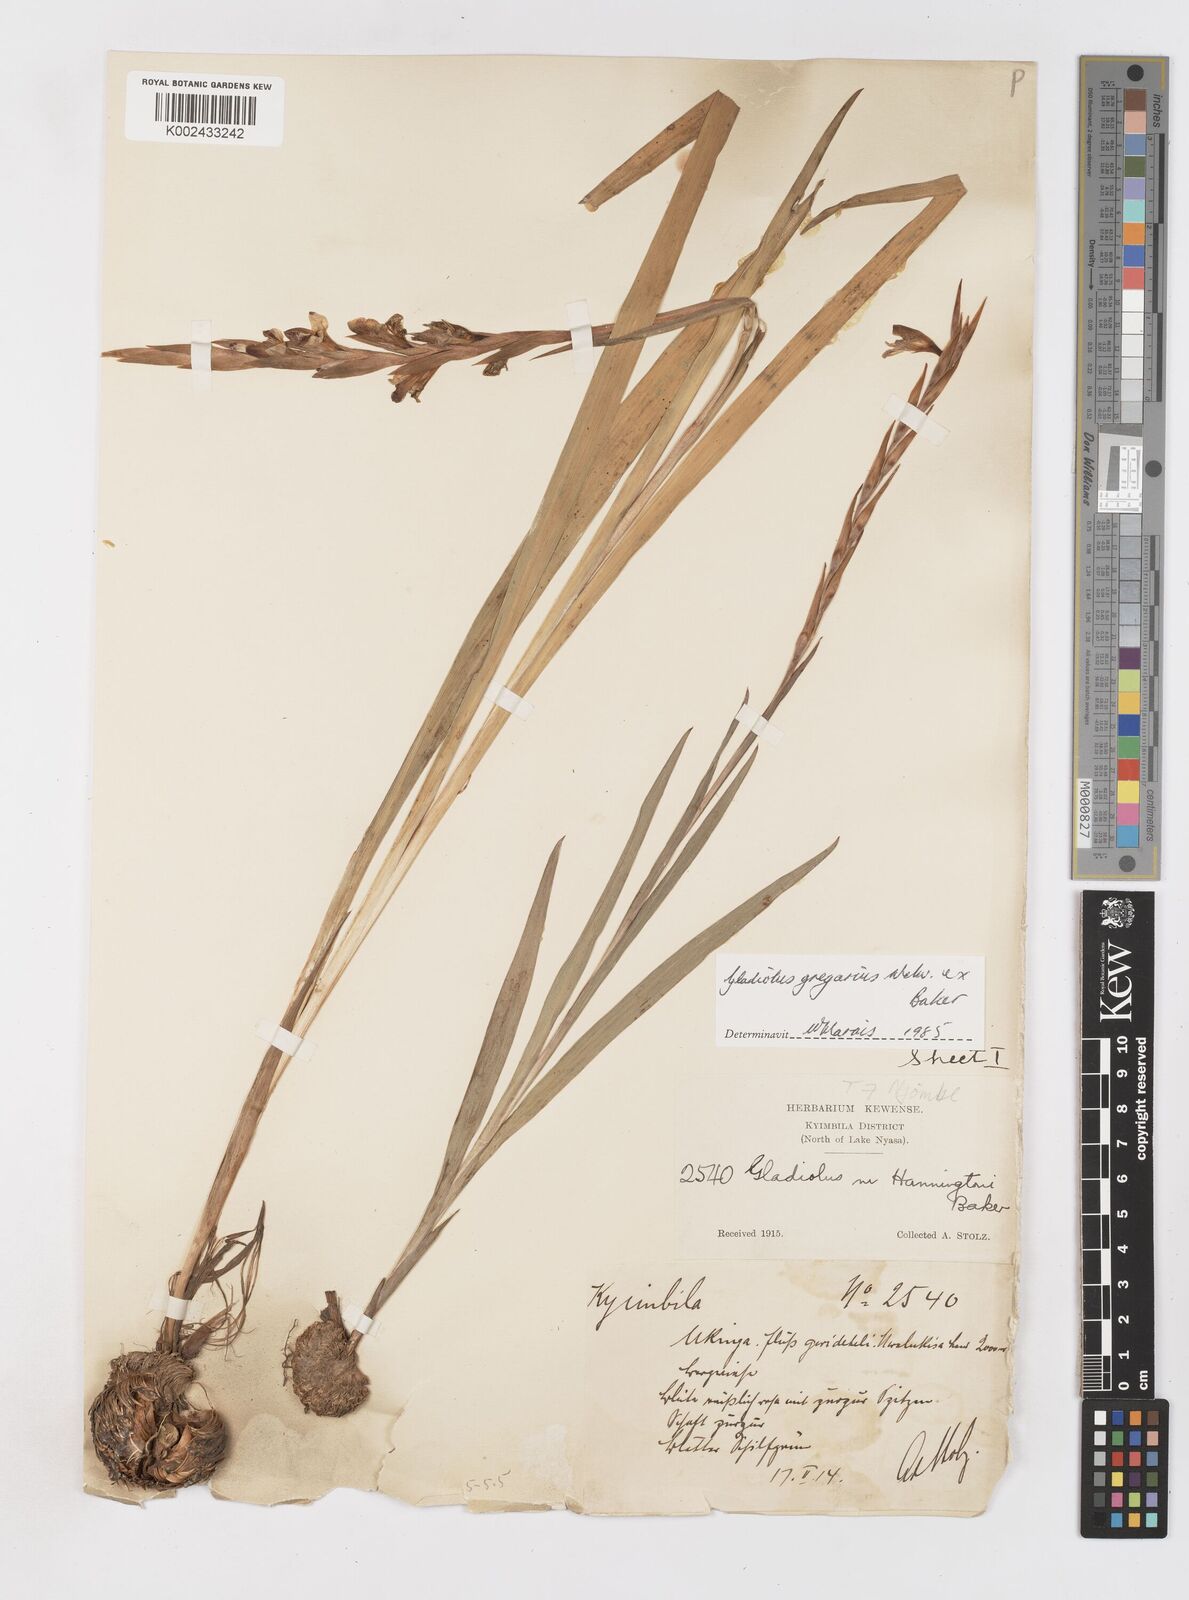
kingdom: Plantae
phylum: Tracheophyta
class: Liliopsida
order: Asparagales
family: Iridaceae
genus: Gladiolus
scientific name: Gladiolus gregarius
